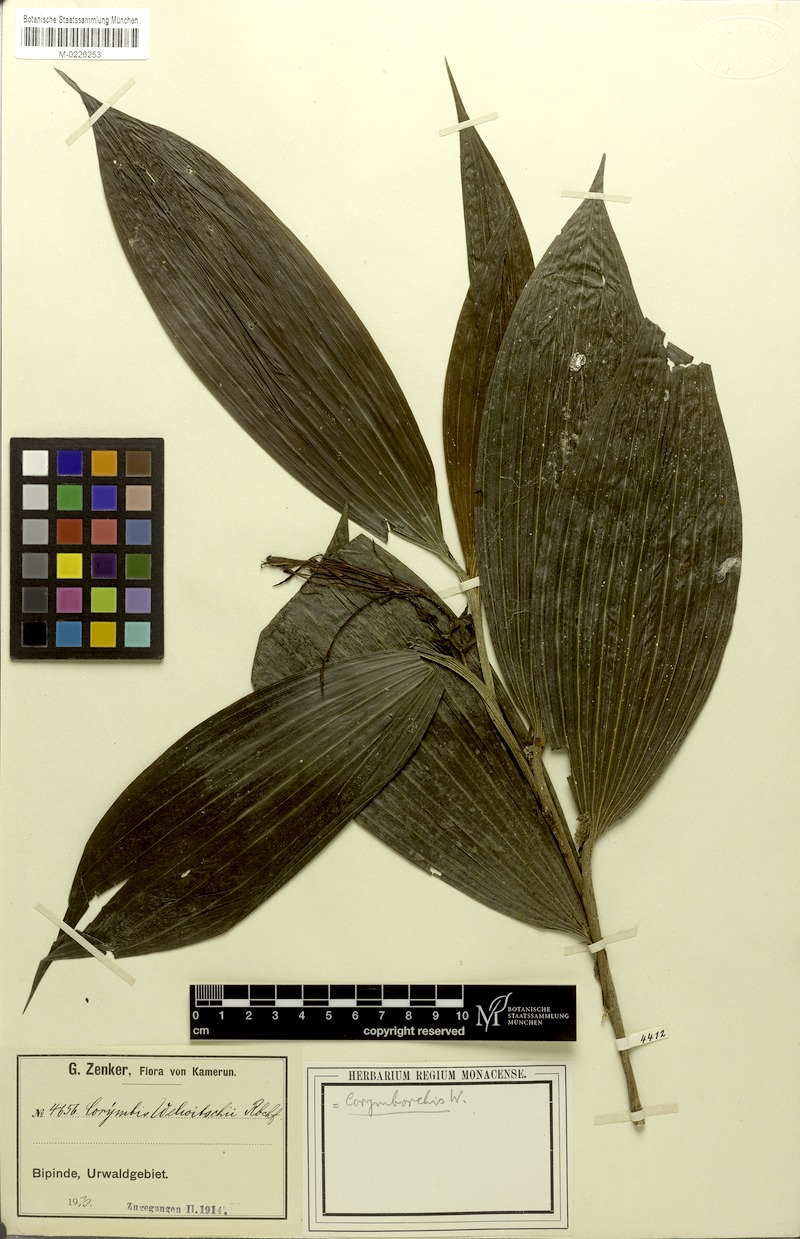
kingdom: Plantae
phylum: Tracheophyta
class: Liliopsida
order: Asparagales
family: Orchidaceae
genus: Corymborkis
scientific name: Corymborkis corymbis
